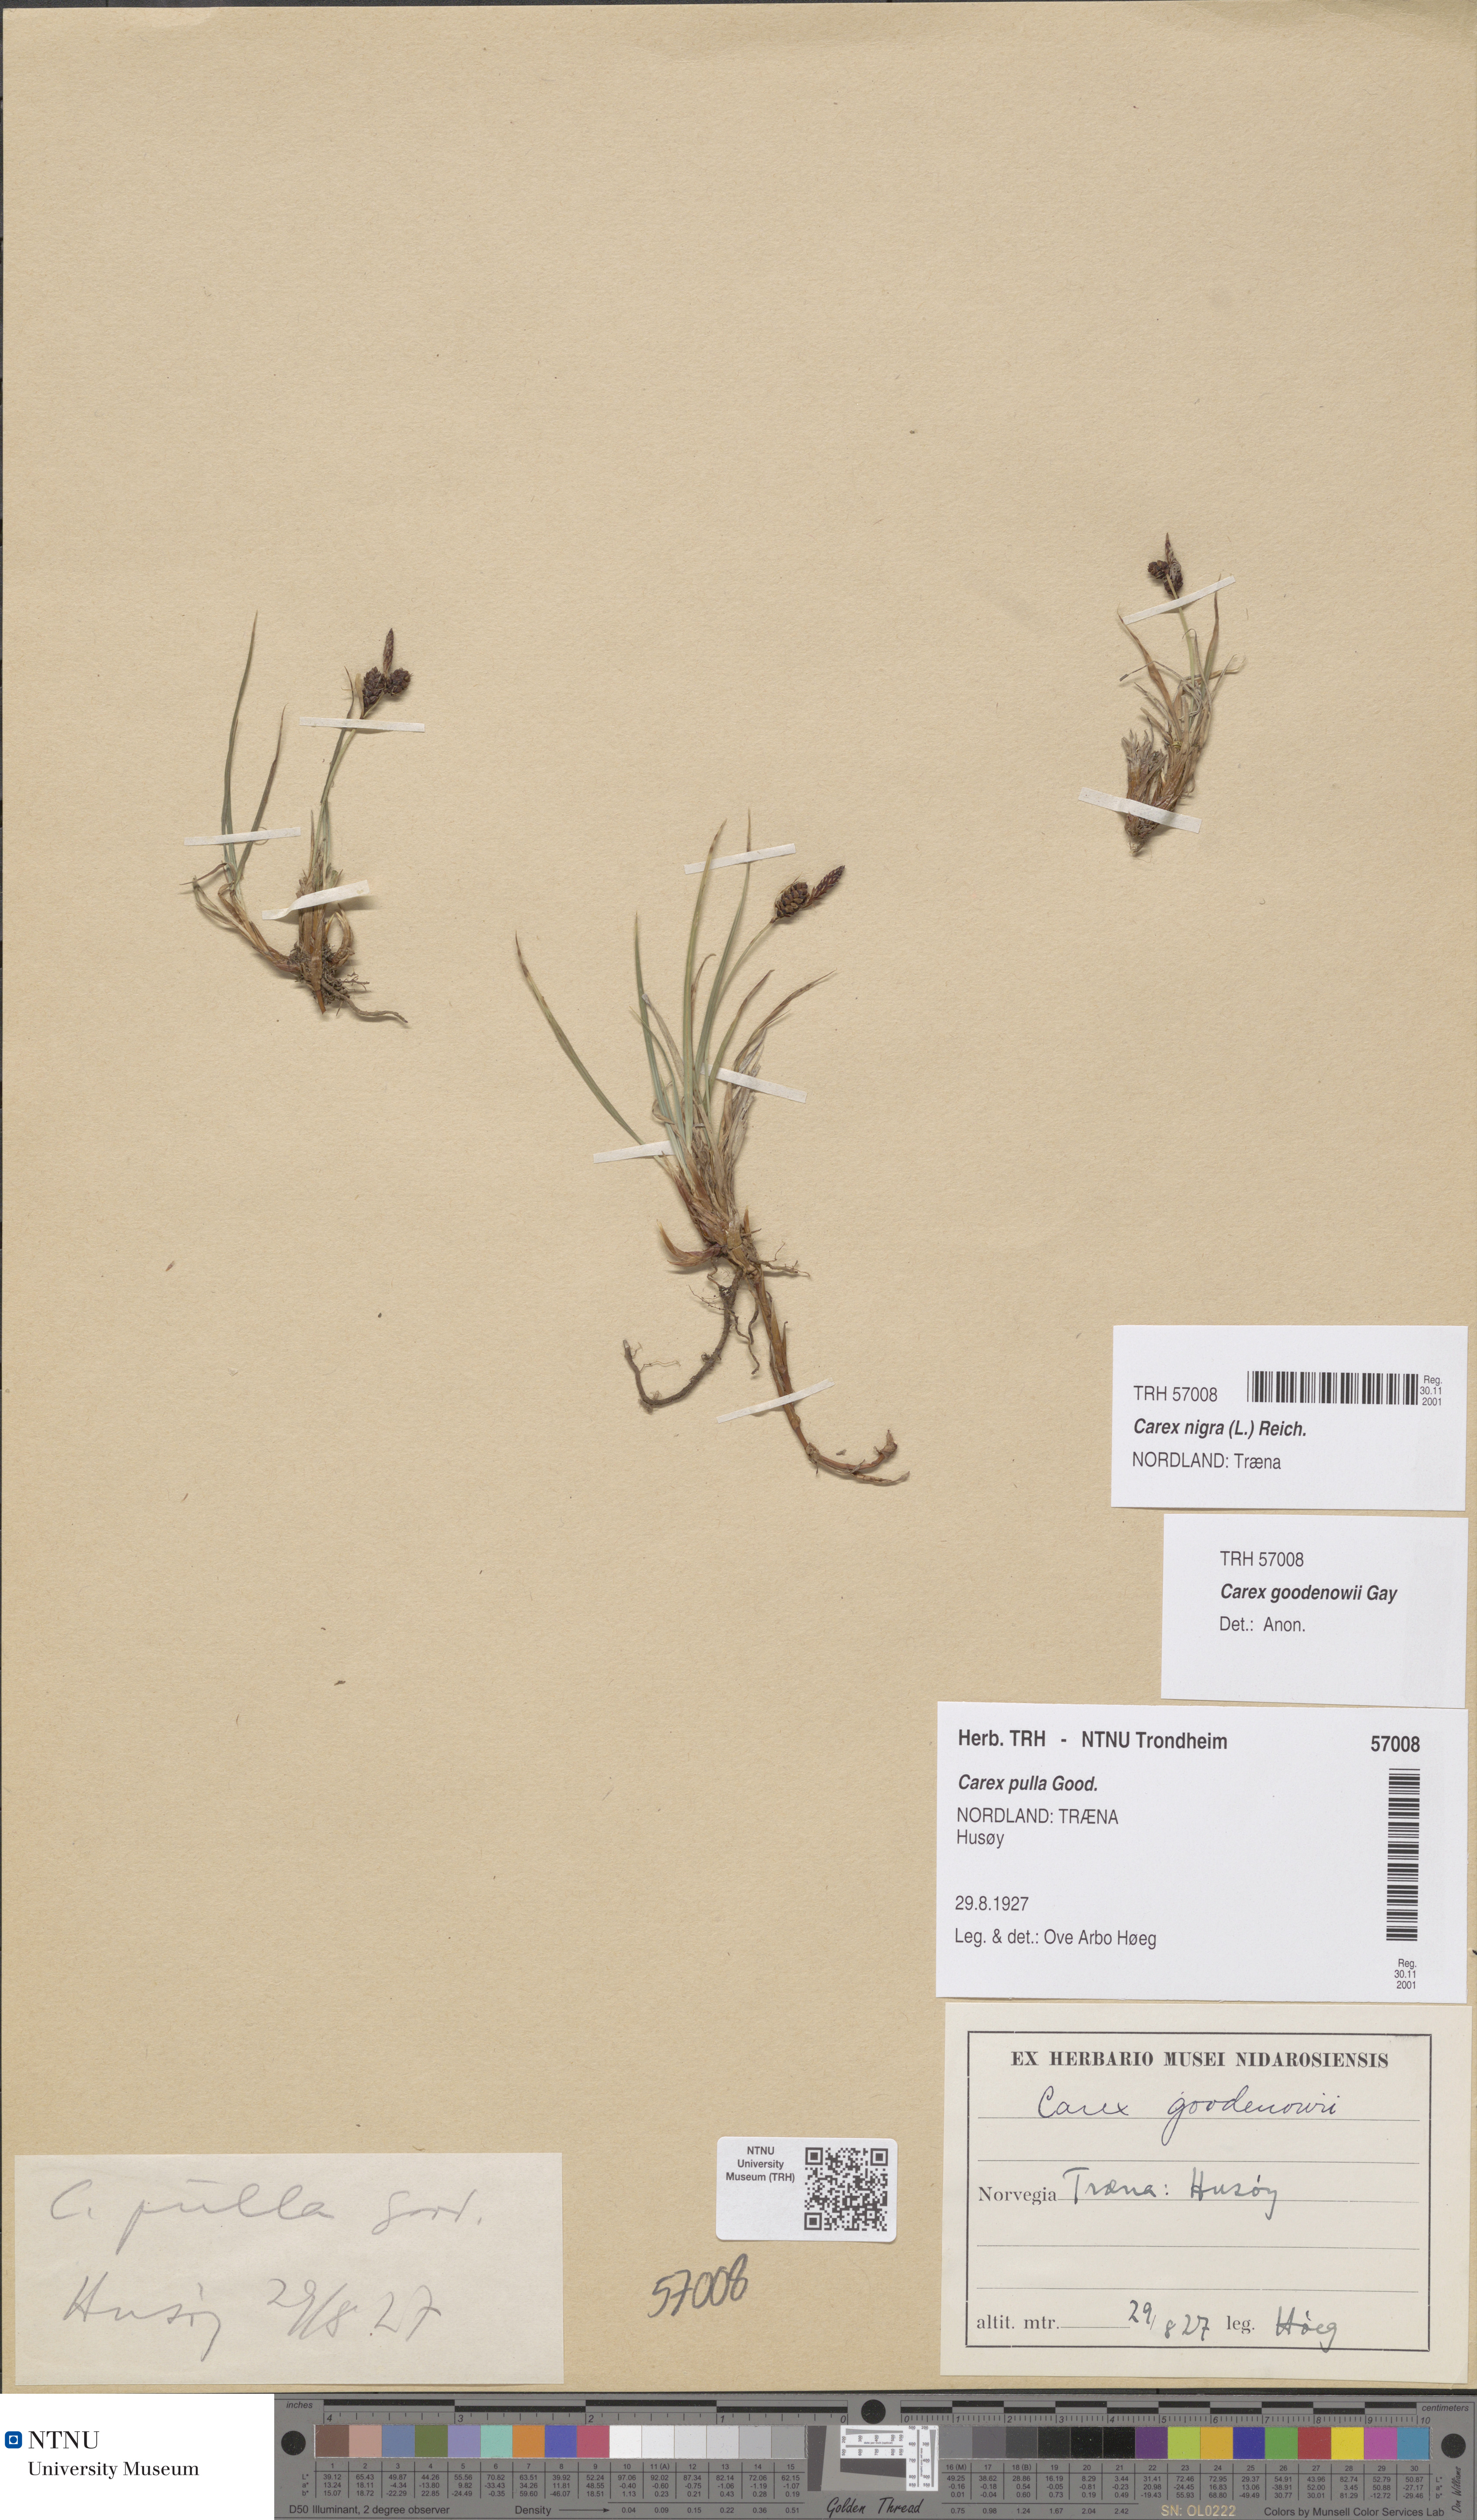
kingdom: Plantae
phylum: Tracheophyta
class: Liliopsida
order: Poales
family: Cyperaceae
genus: Carex
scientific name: Carex nigra
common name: Common sedge
